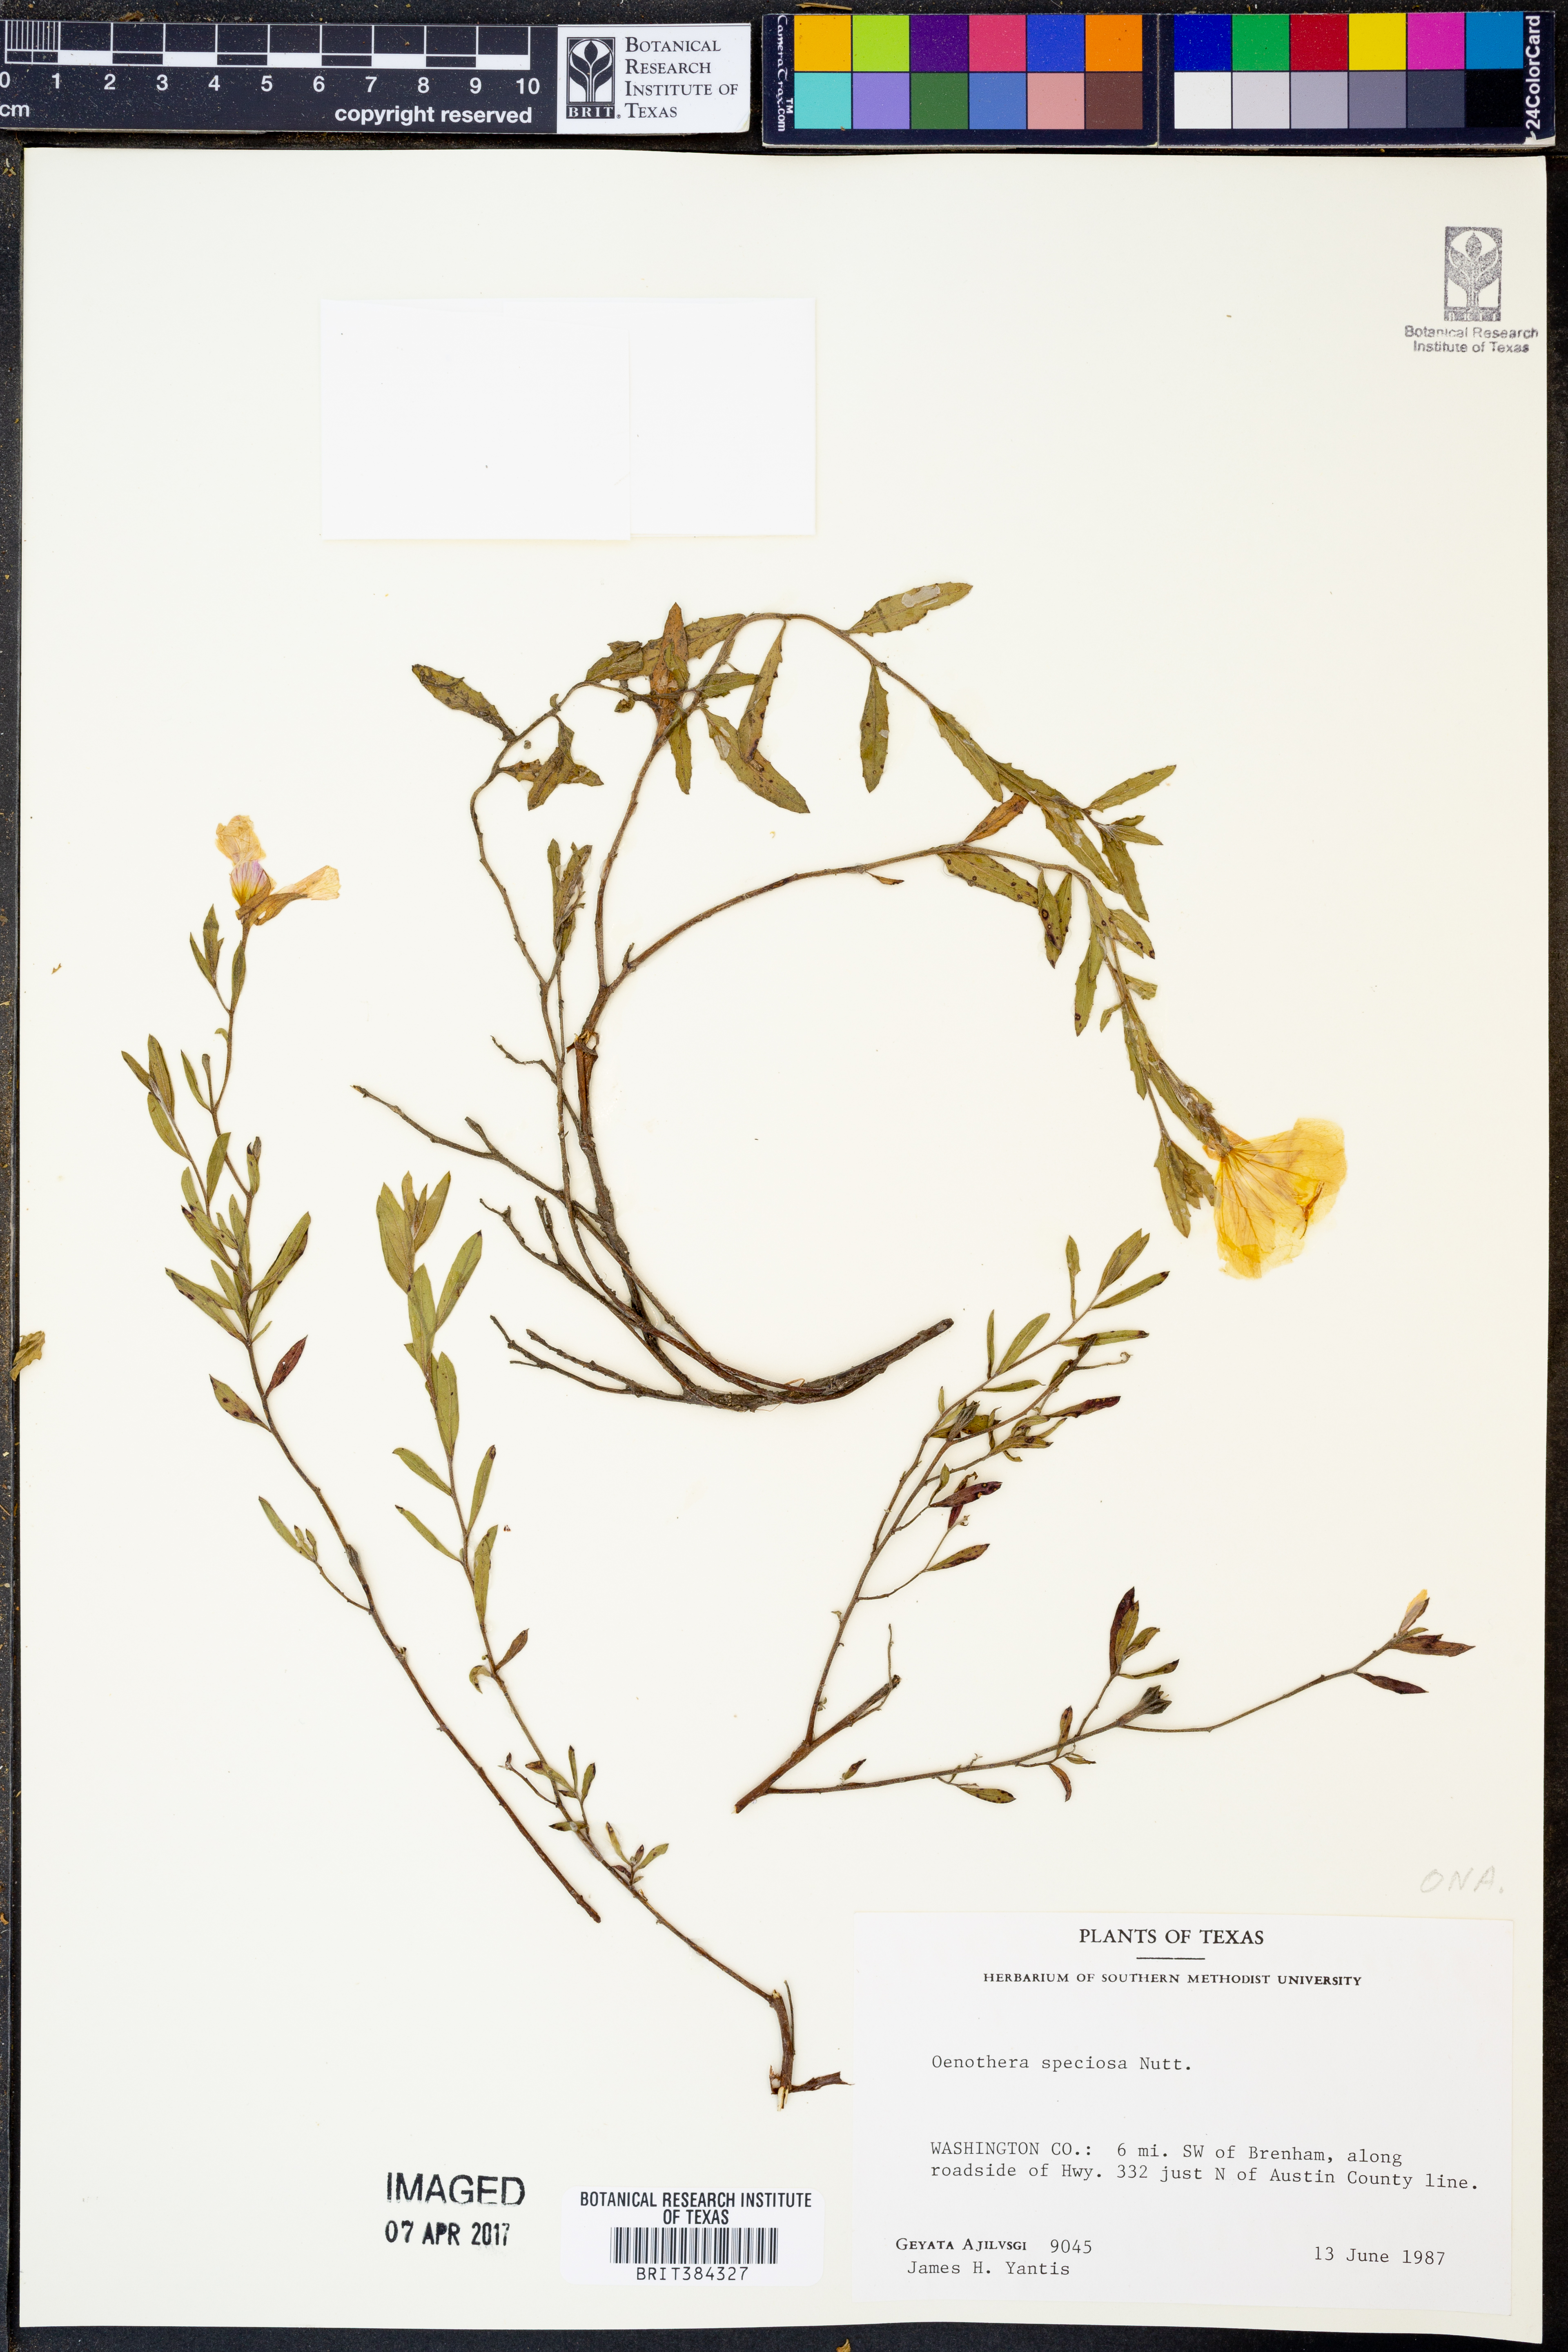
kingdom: Plantae
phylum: Tracheophyta
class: Magnoliopsida
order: Myrtales
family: Onagraceae
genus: Oenothera
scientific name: Oenothera speciosa
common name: White evening-primrose
